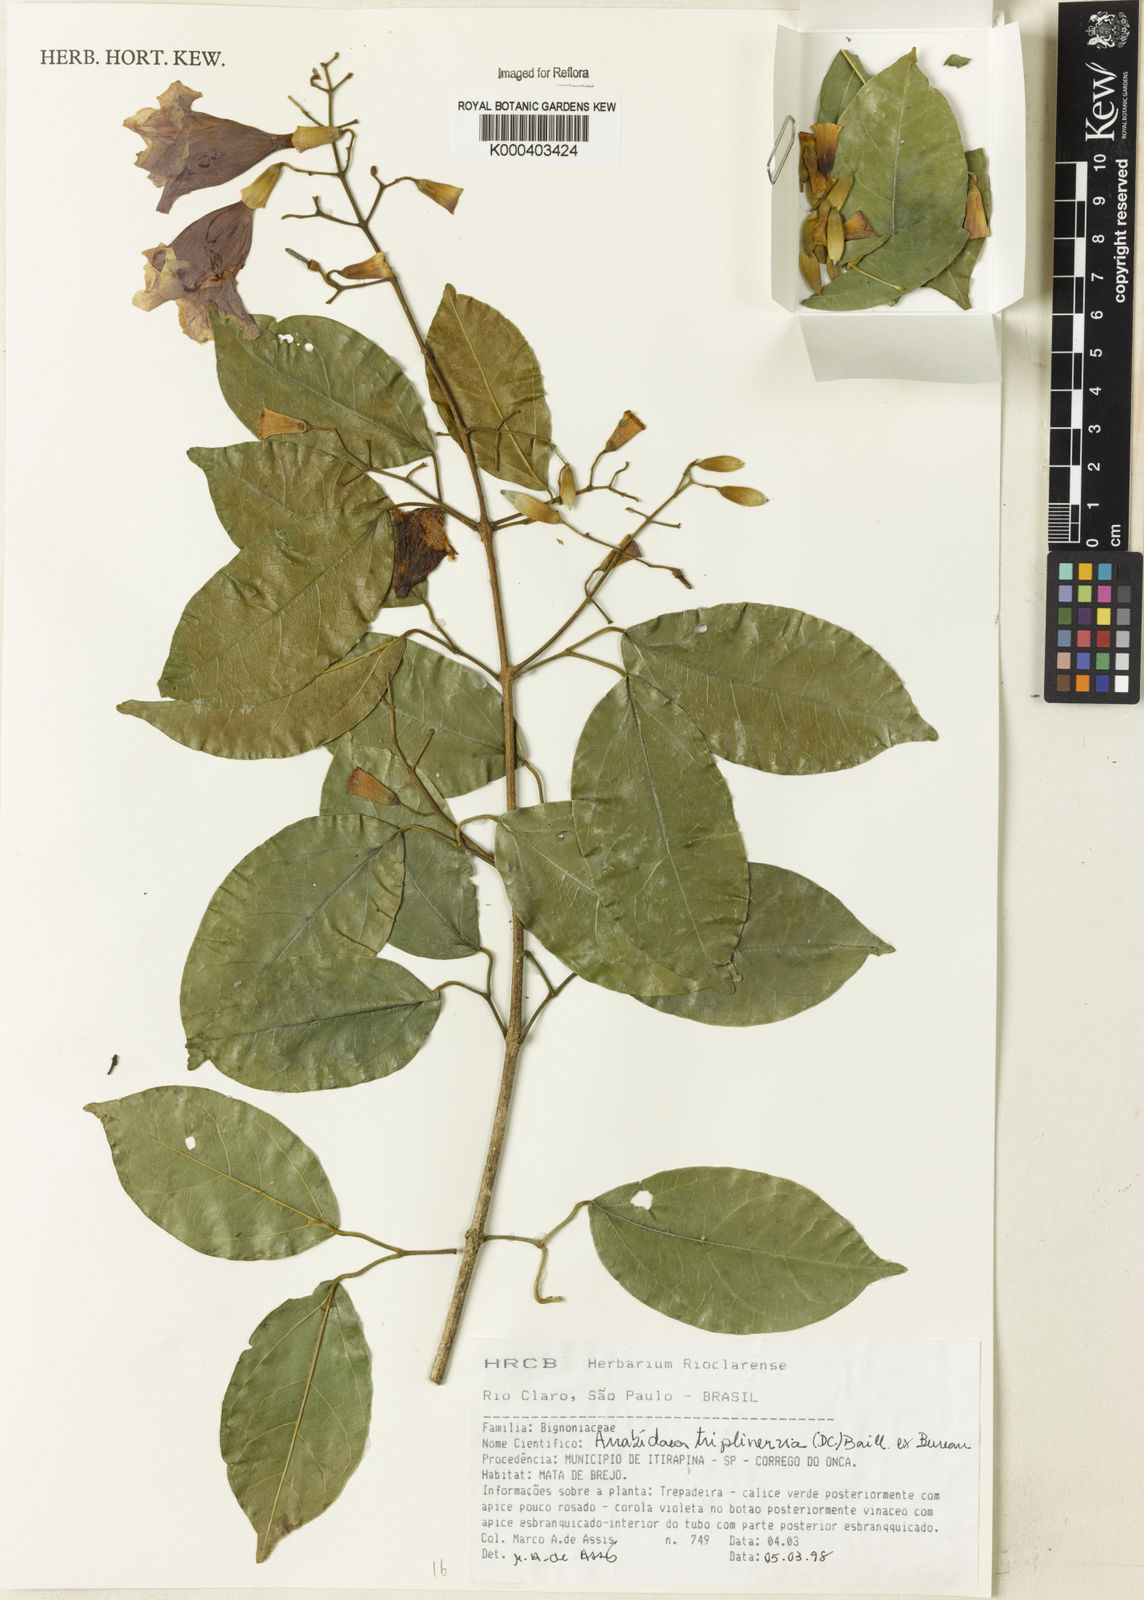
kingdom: Plantae
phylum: Tracheophyta
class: Magnoliopsida
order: Lamiales
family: Bignoniaceae
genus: Fridericia
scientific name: Fridericia triplinervia
